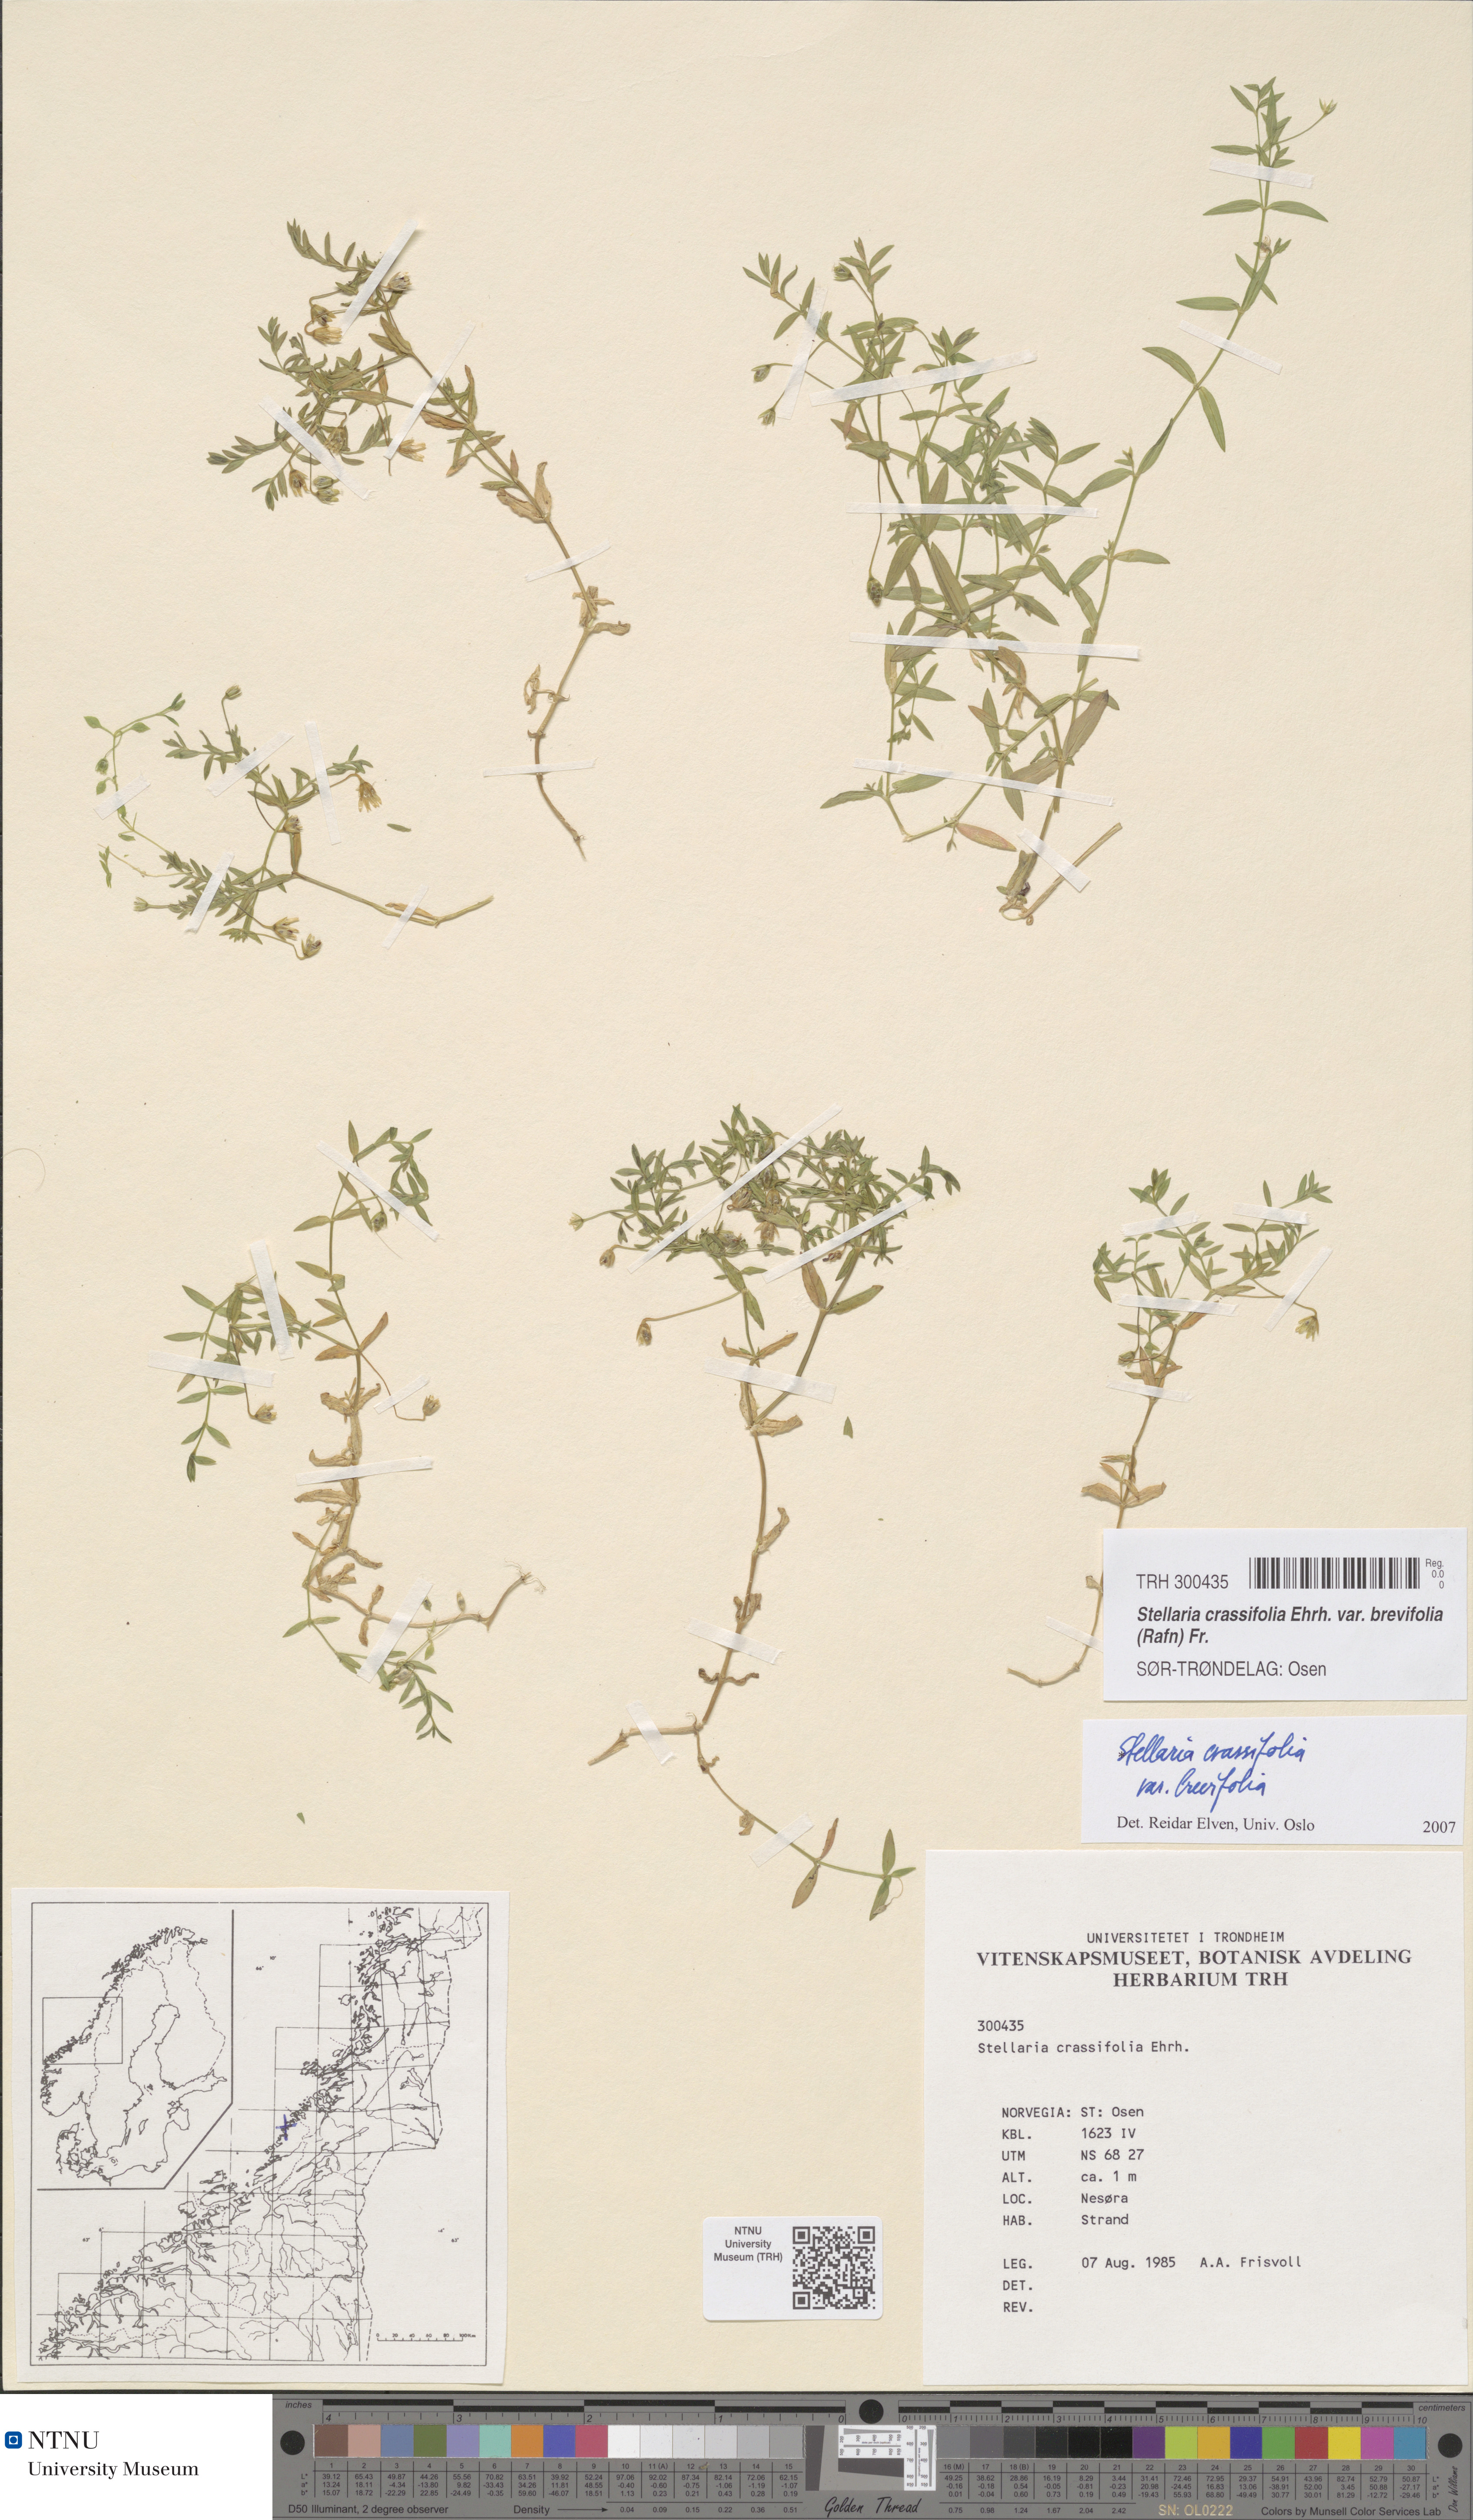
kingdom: Plantae
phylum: Tracheophyta
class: Magnoliopsida
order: Caryophyllales
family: Caryophyllaceae
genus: Stellaria
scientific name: Stellaria crassifolia
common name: Fleshy starwort
